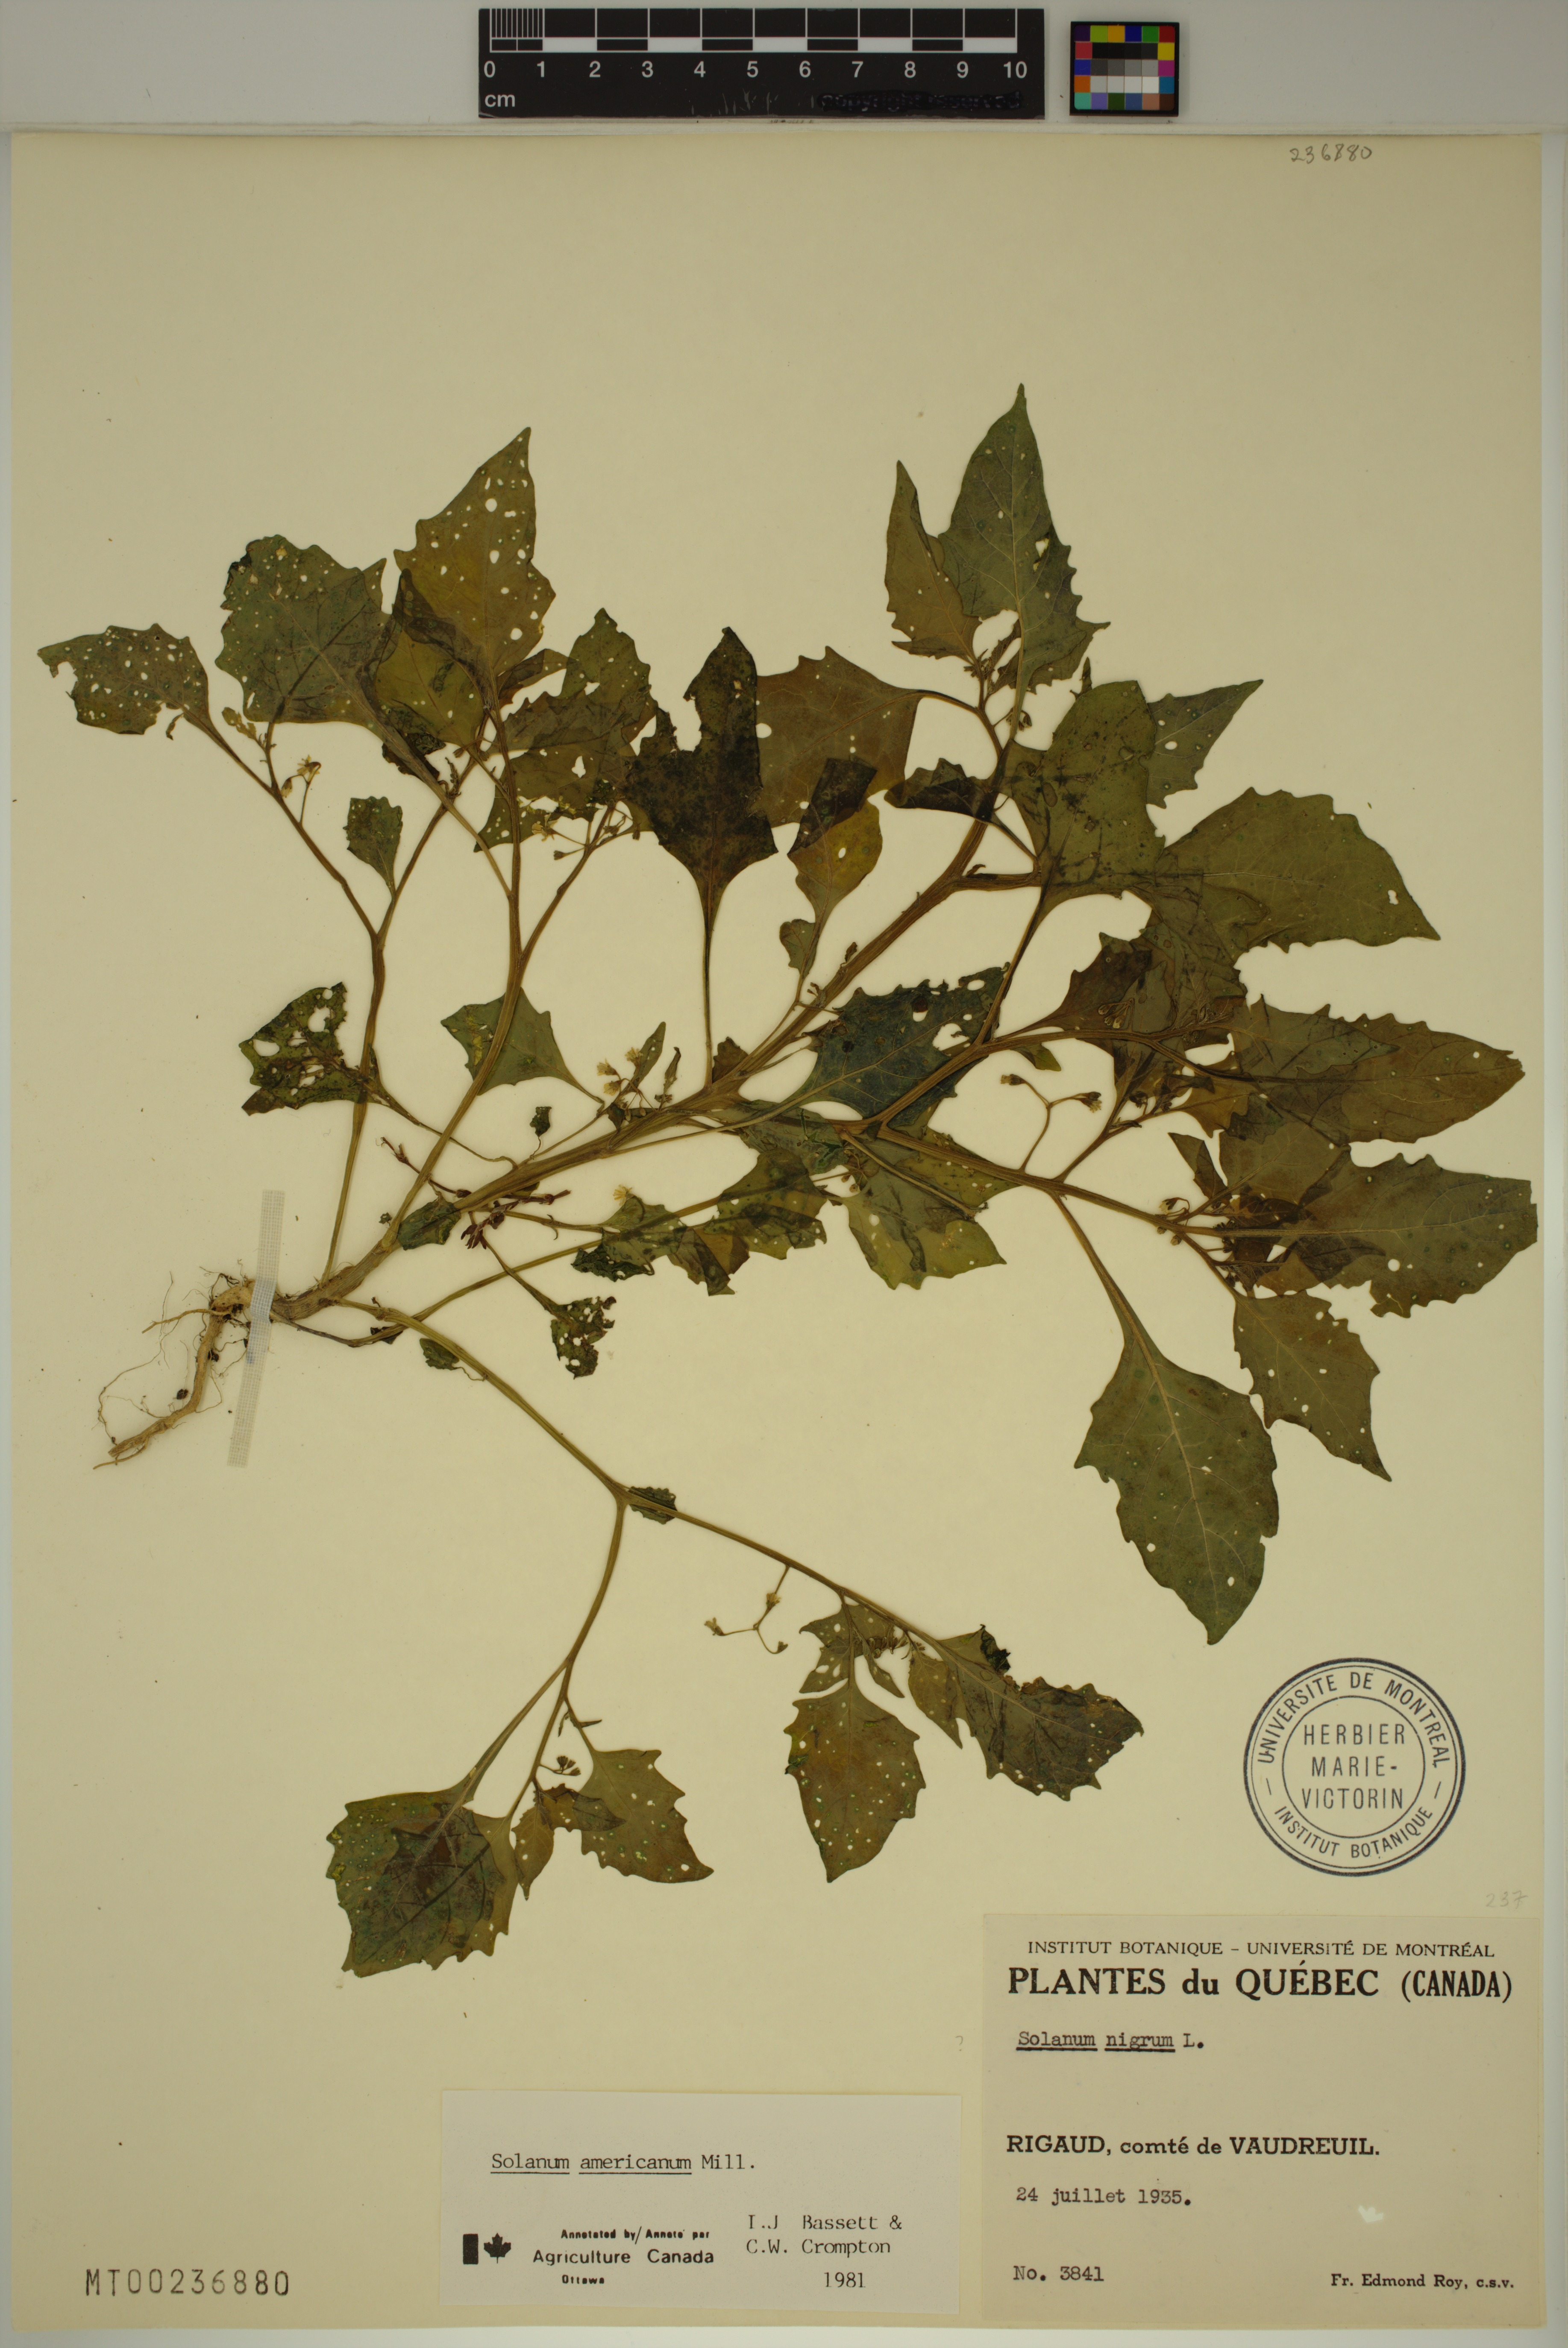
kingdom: Plantae
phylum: Tracheophyta
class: Magnoliopsida
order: Solanales
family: Solanaceae
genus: Solanum
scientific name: Solanum emulans
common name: Eastern black nightshade
